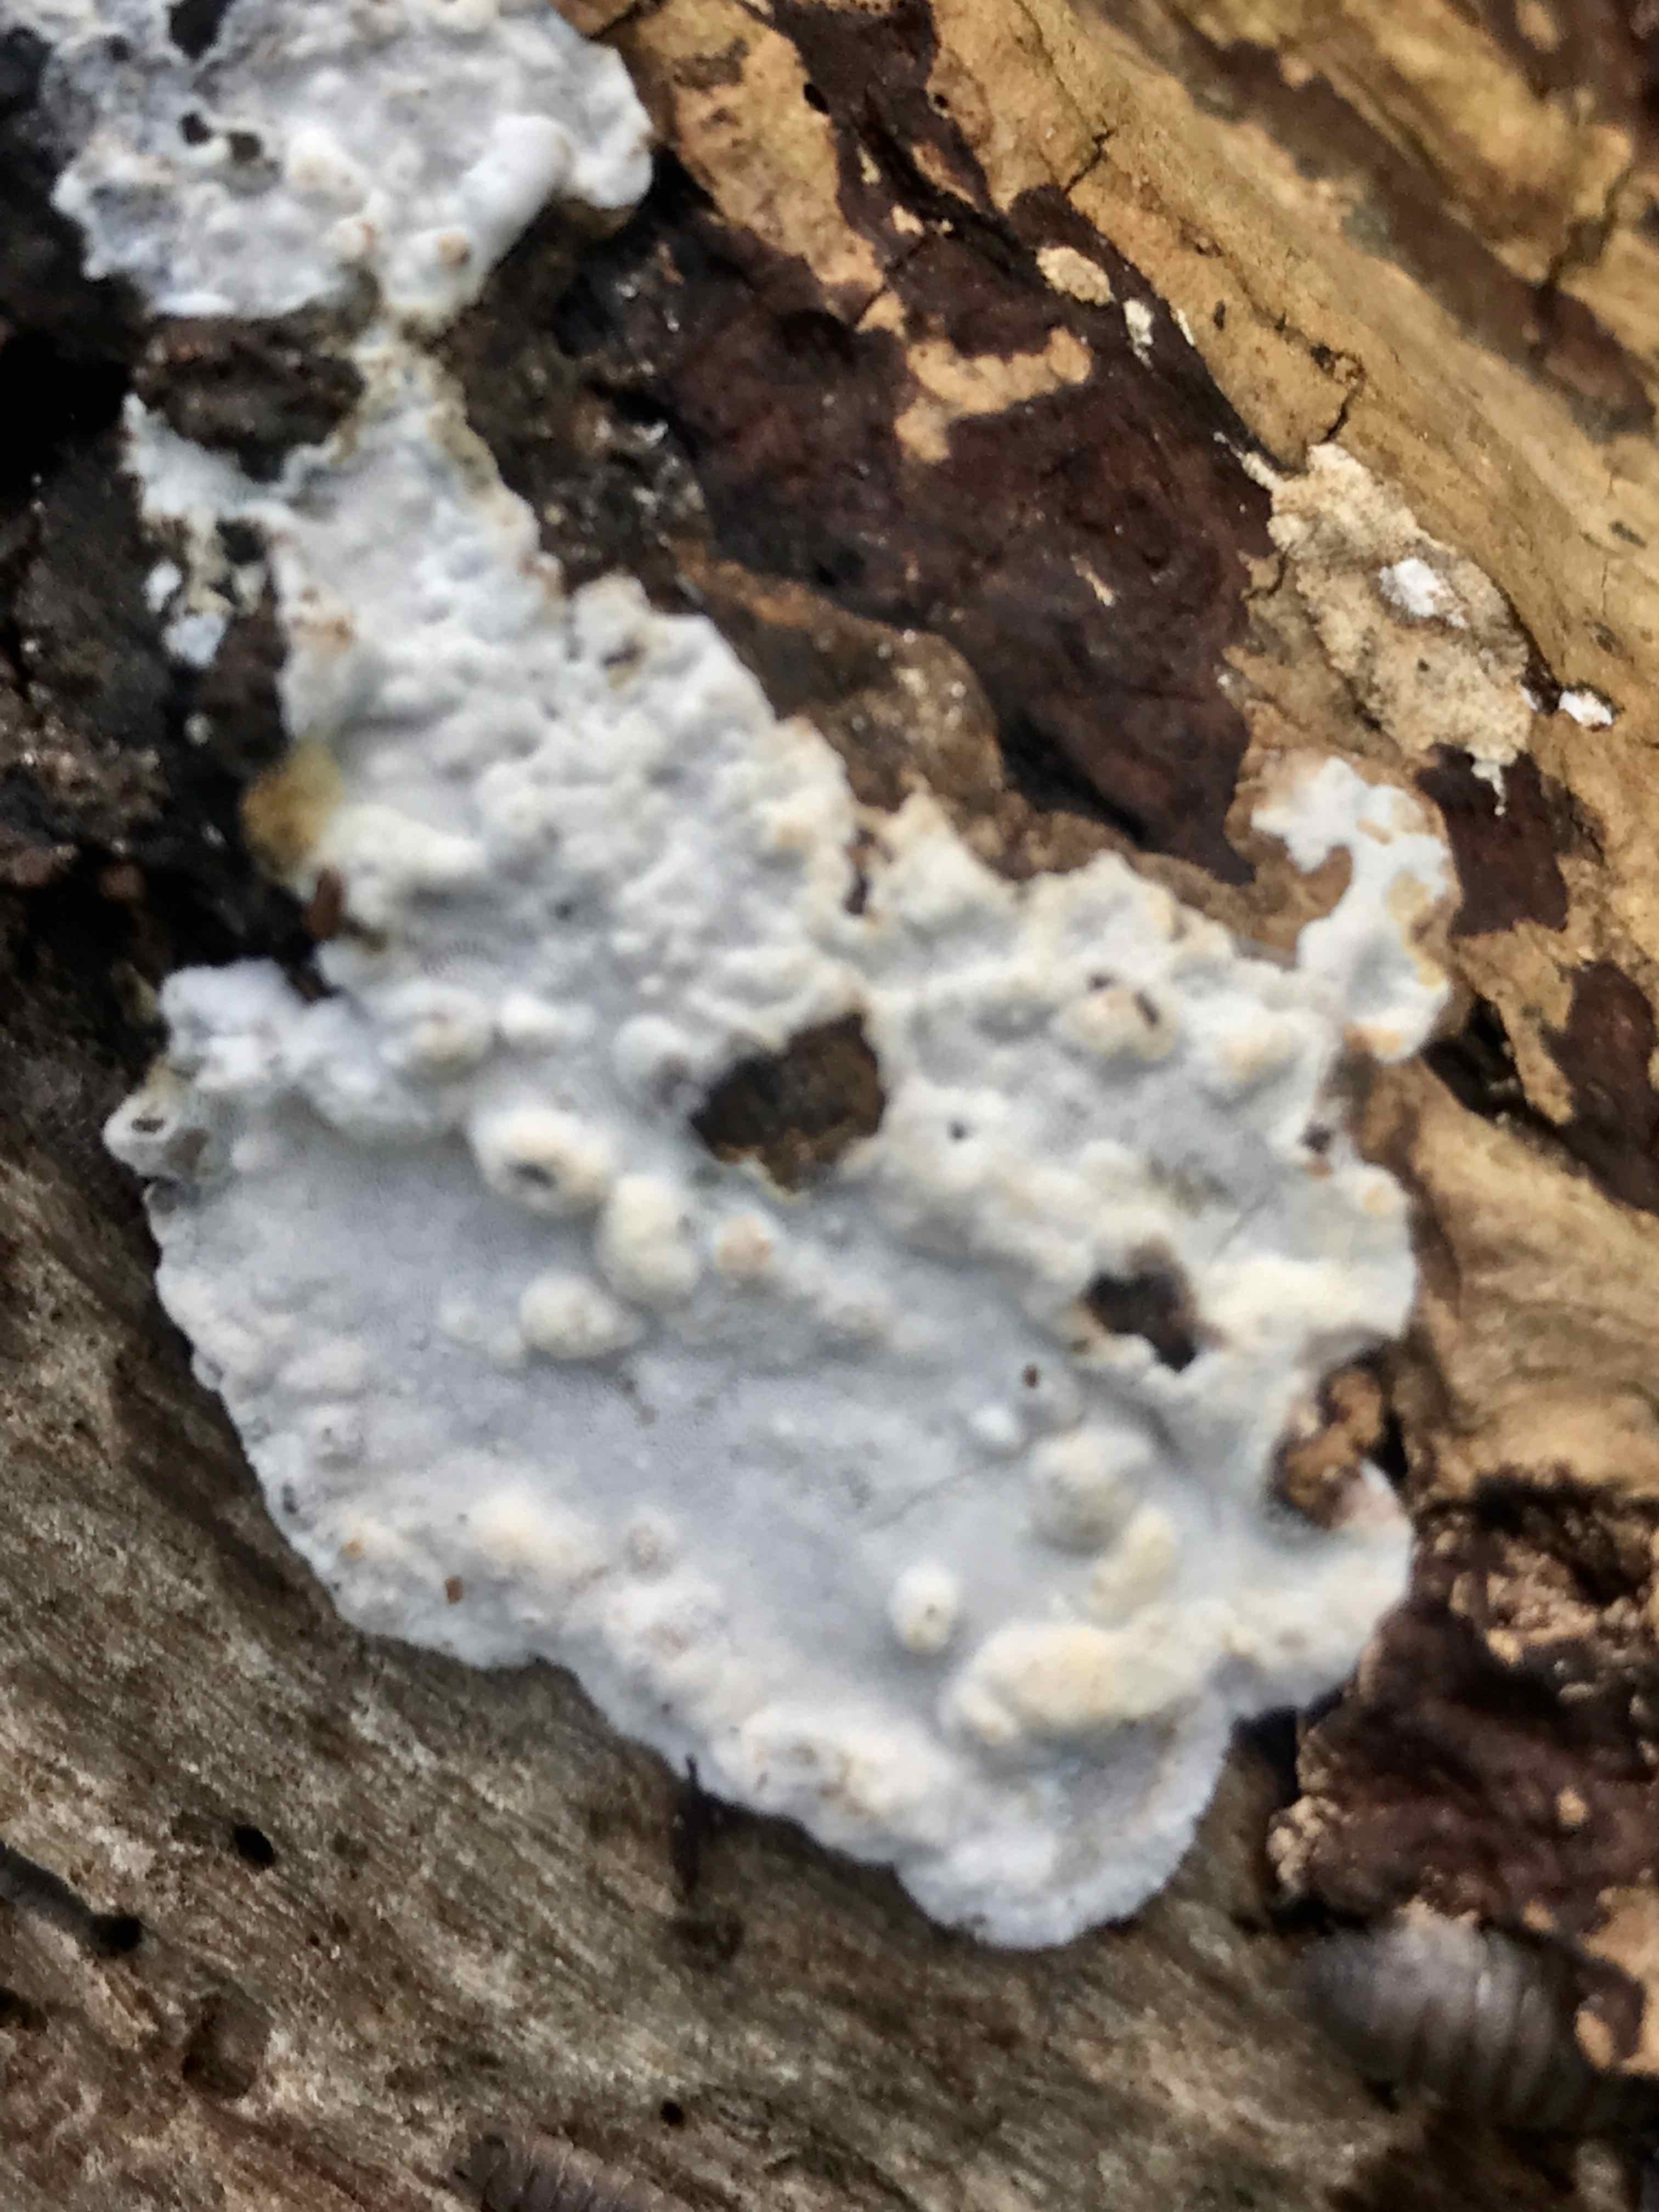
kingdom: Fungi
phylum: Basidiomycota
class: Agaricomycetes
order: Polyporales
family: Incrustoporiaceae
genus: Skeletocutis
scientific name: Skeletocutis nemoralis
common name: stor krystalporesvamp
